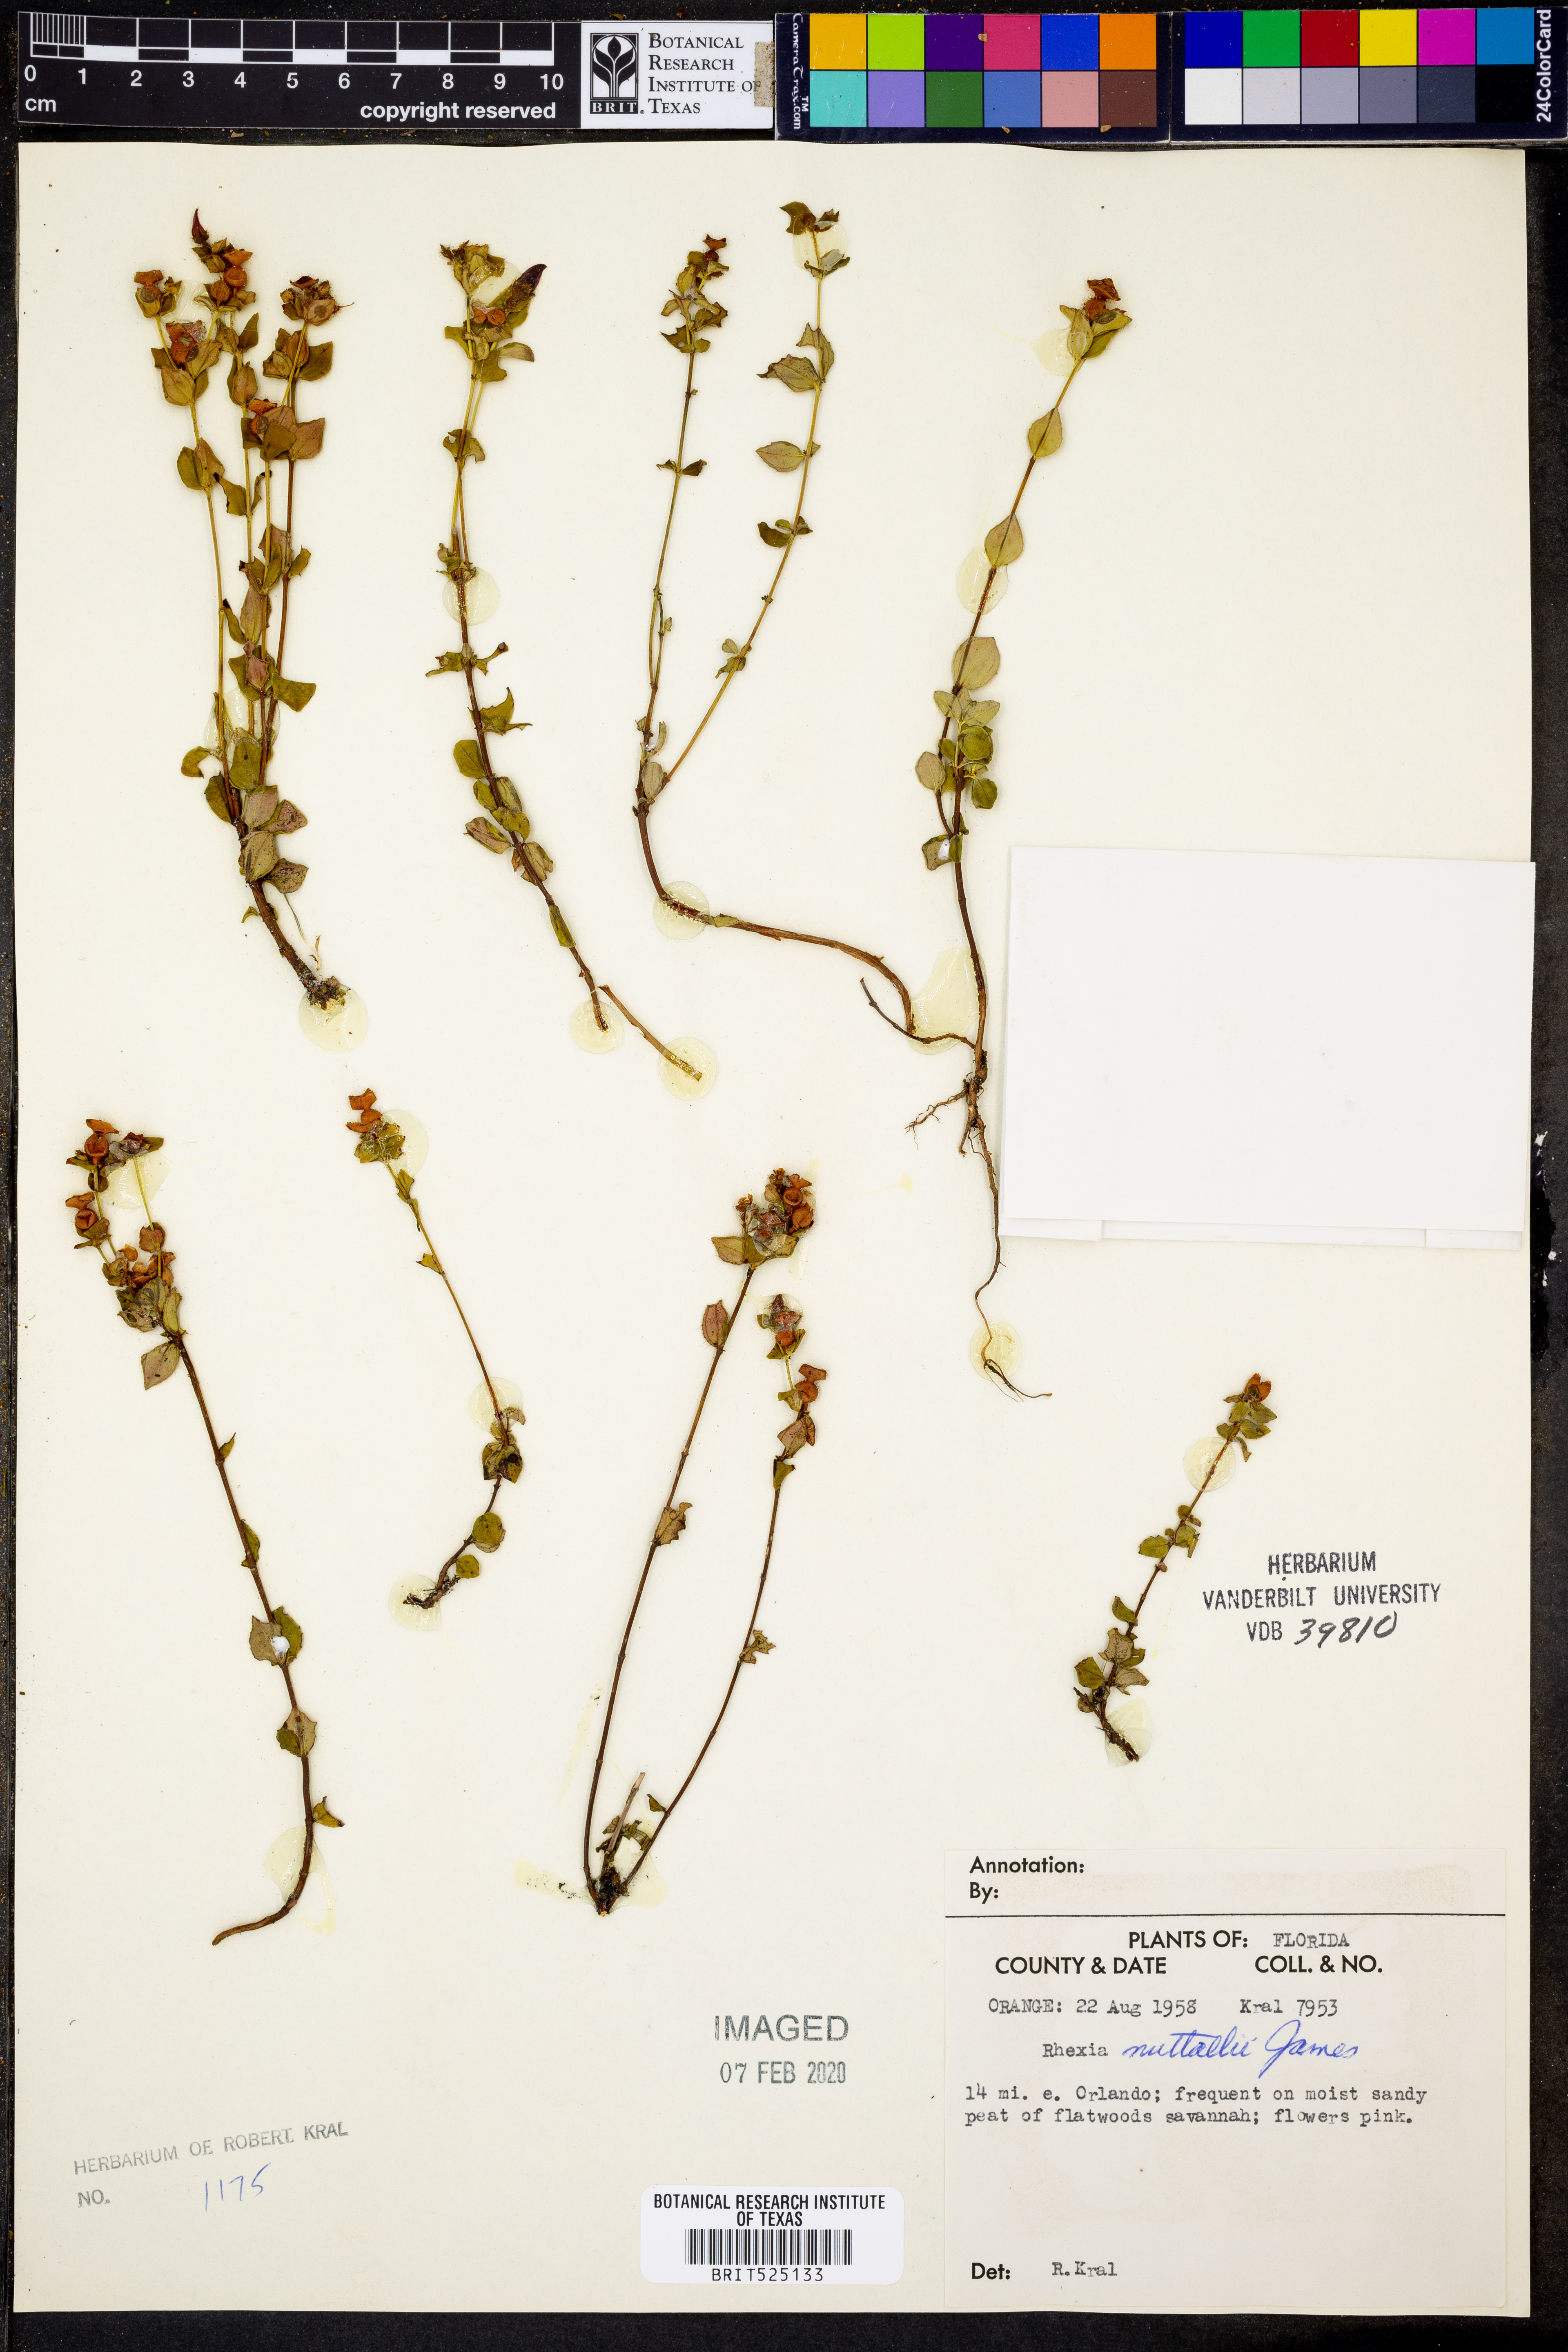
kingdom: Plantae
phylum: Tracheophyta
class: Magnoliopsida
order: Myrtales
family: Melastomataceae
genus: Rhexia
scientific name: Rhexia nuttallii
